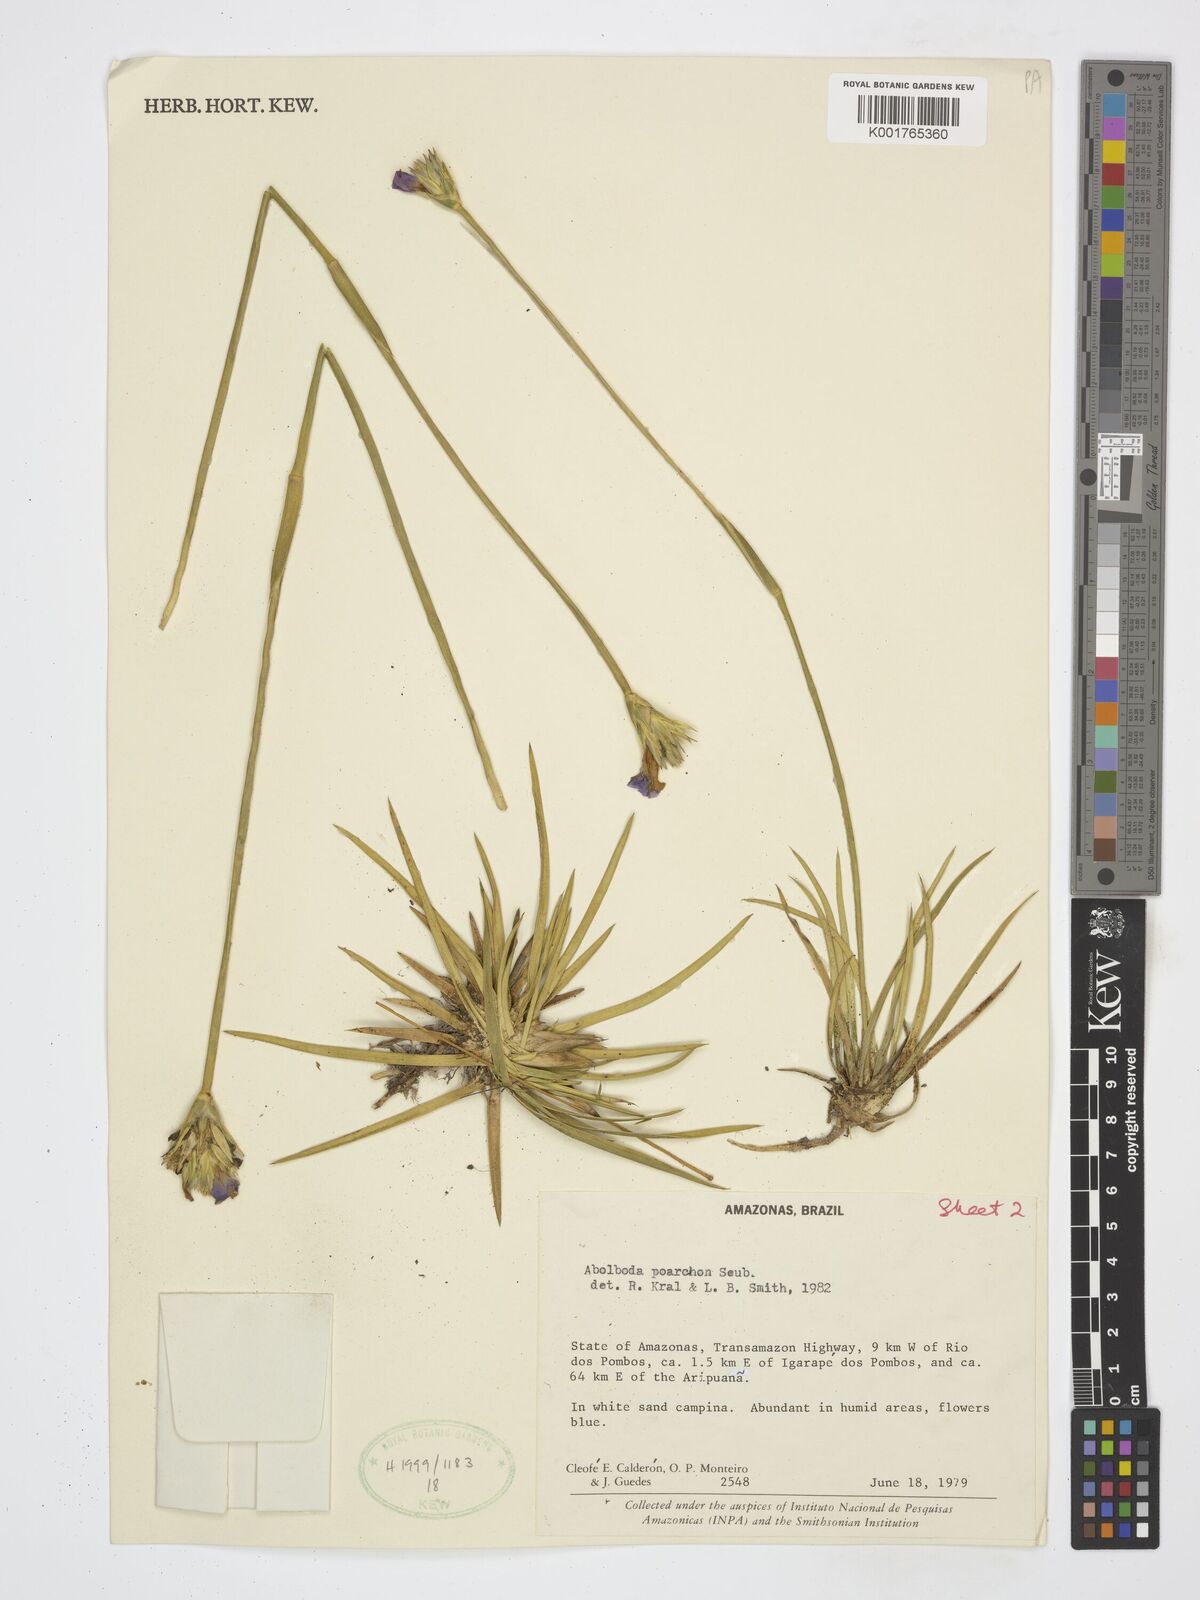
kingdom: Plantae
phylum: Tracheophyta
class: Liliopsida
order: Poales
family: Xyridaceae
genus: Abolboda
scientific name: Abolboda poarchon
